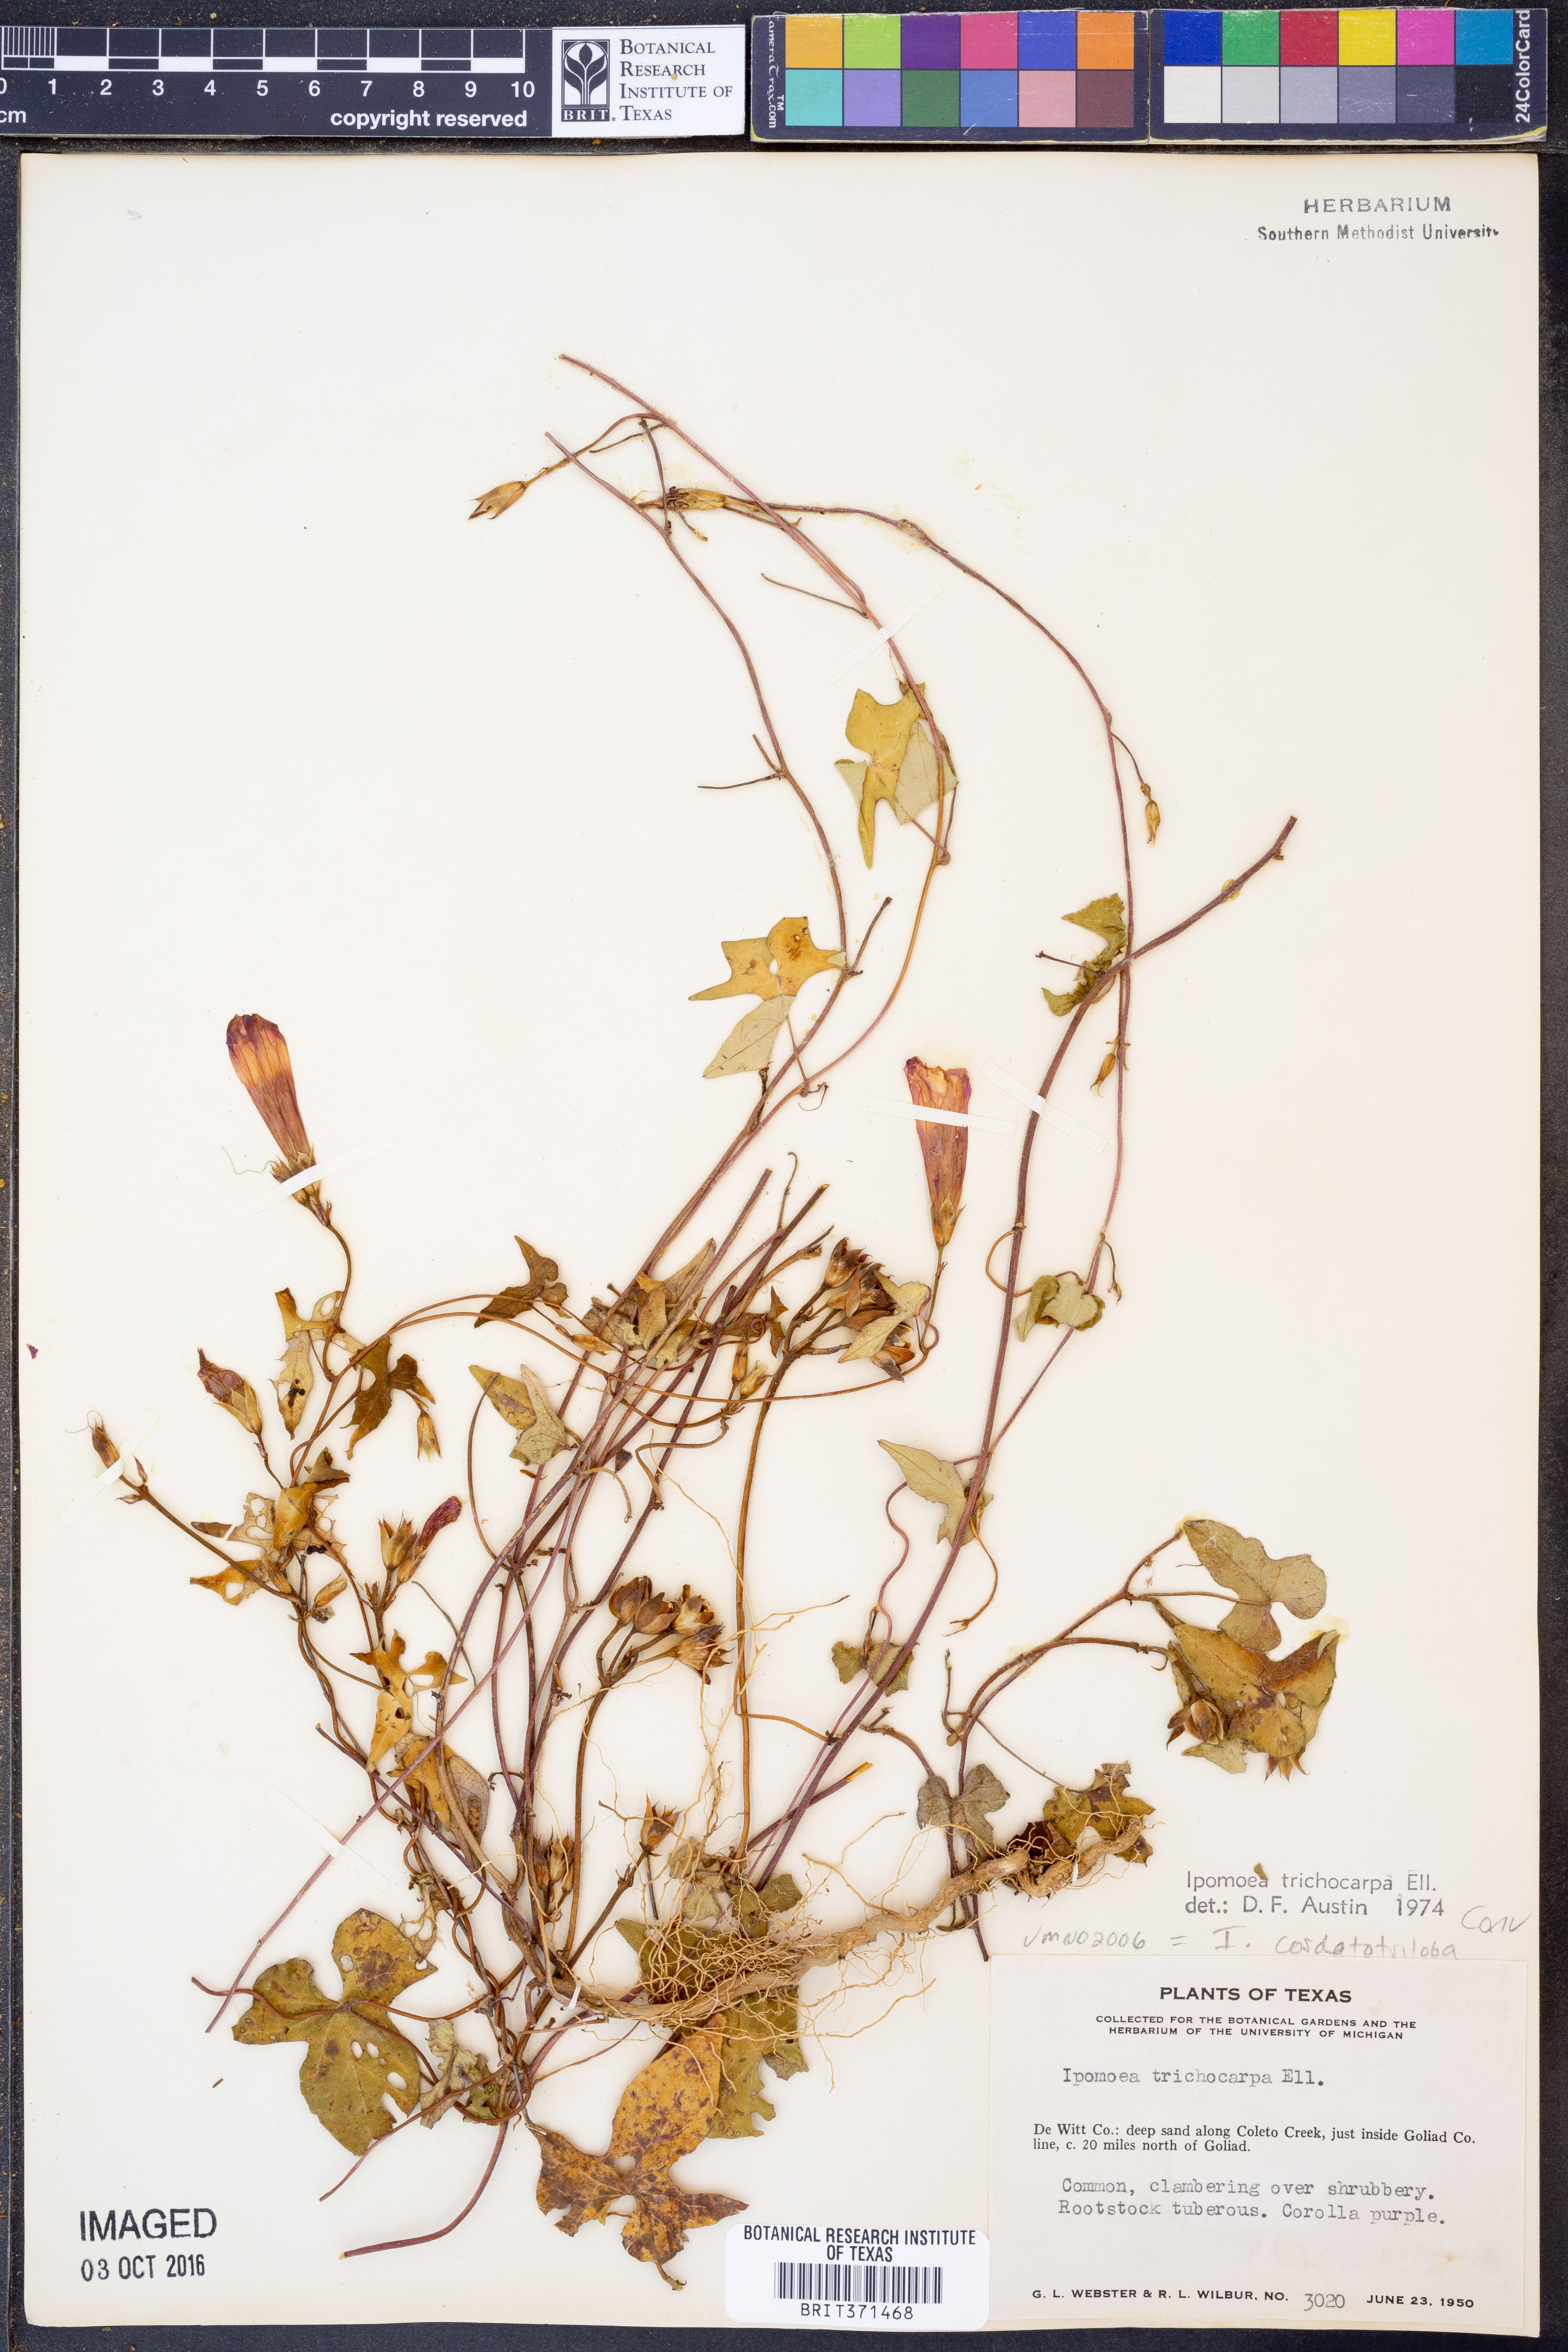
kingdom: Plantae
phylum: Tracheophyta
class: Magnoliopsida
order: Solanales
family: Convolvulaceae
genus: Ipomoea
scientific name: Ipomoea cordatotriloba
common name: Cotton morning glory
